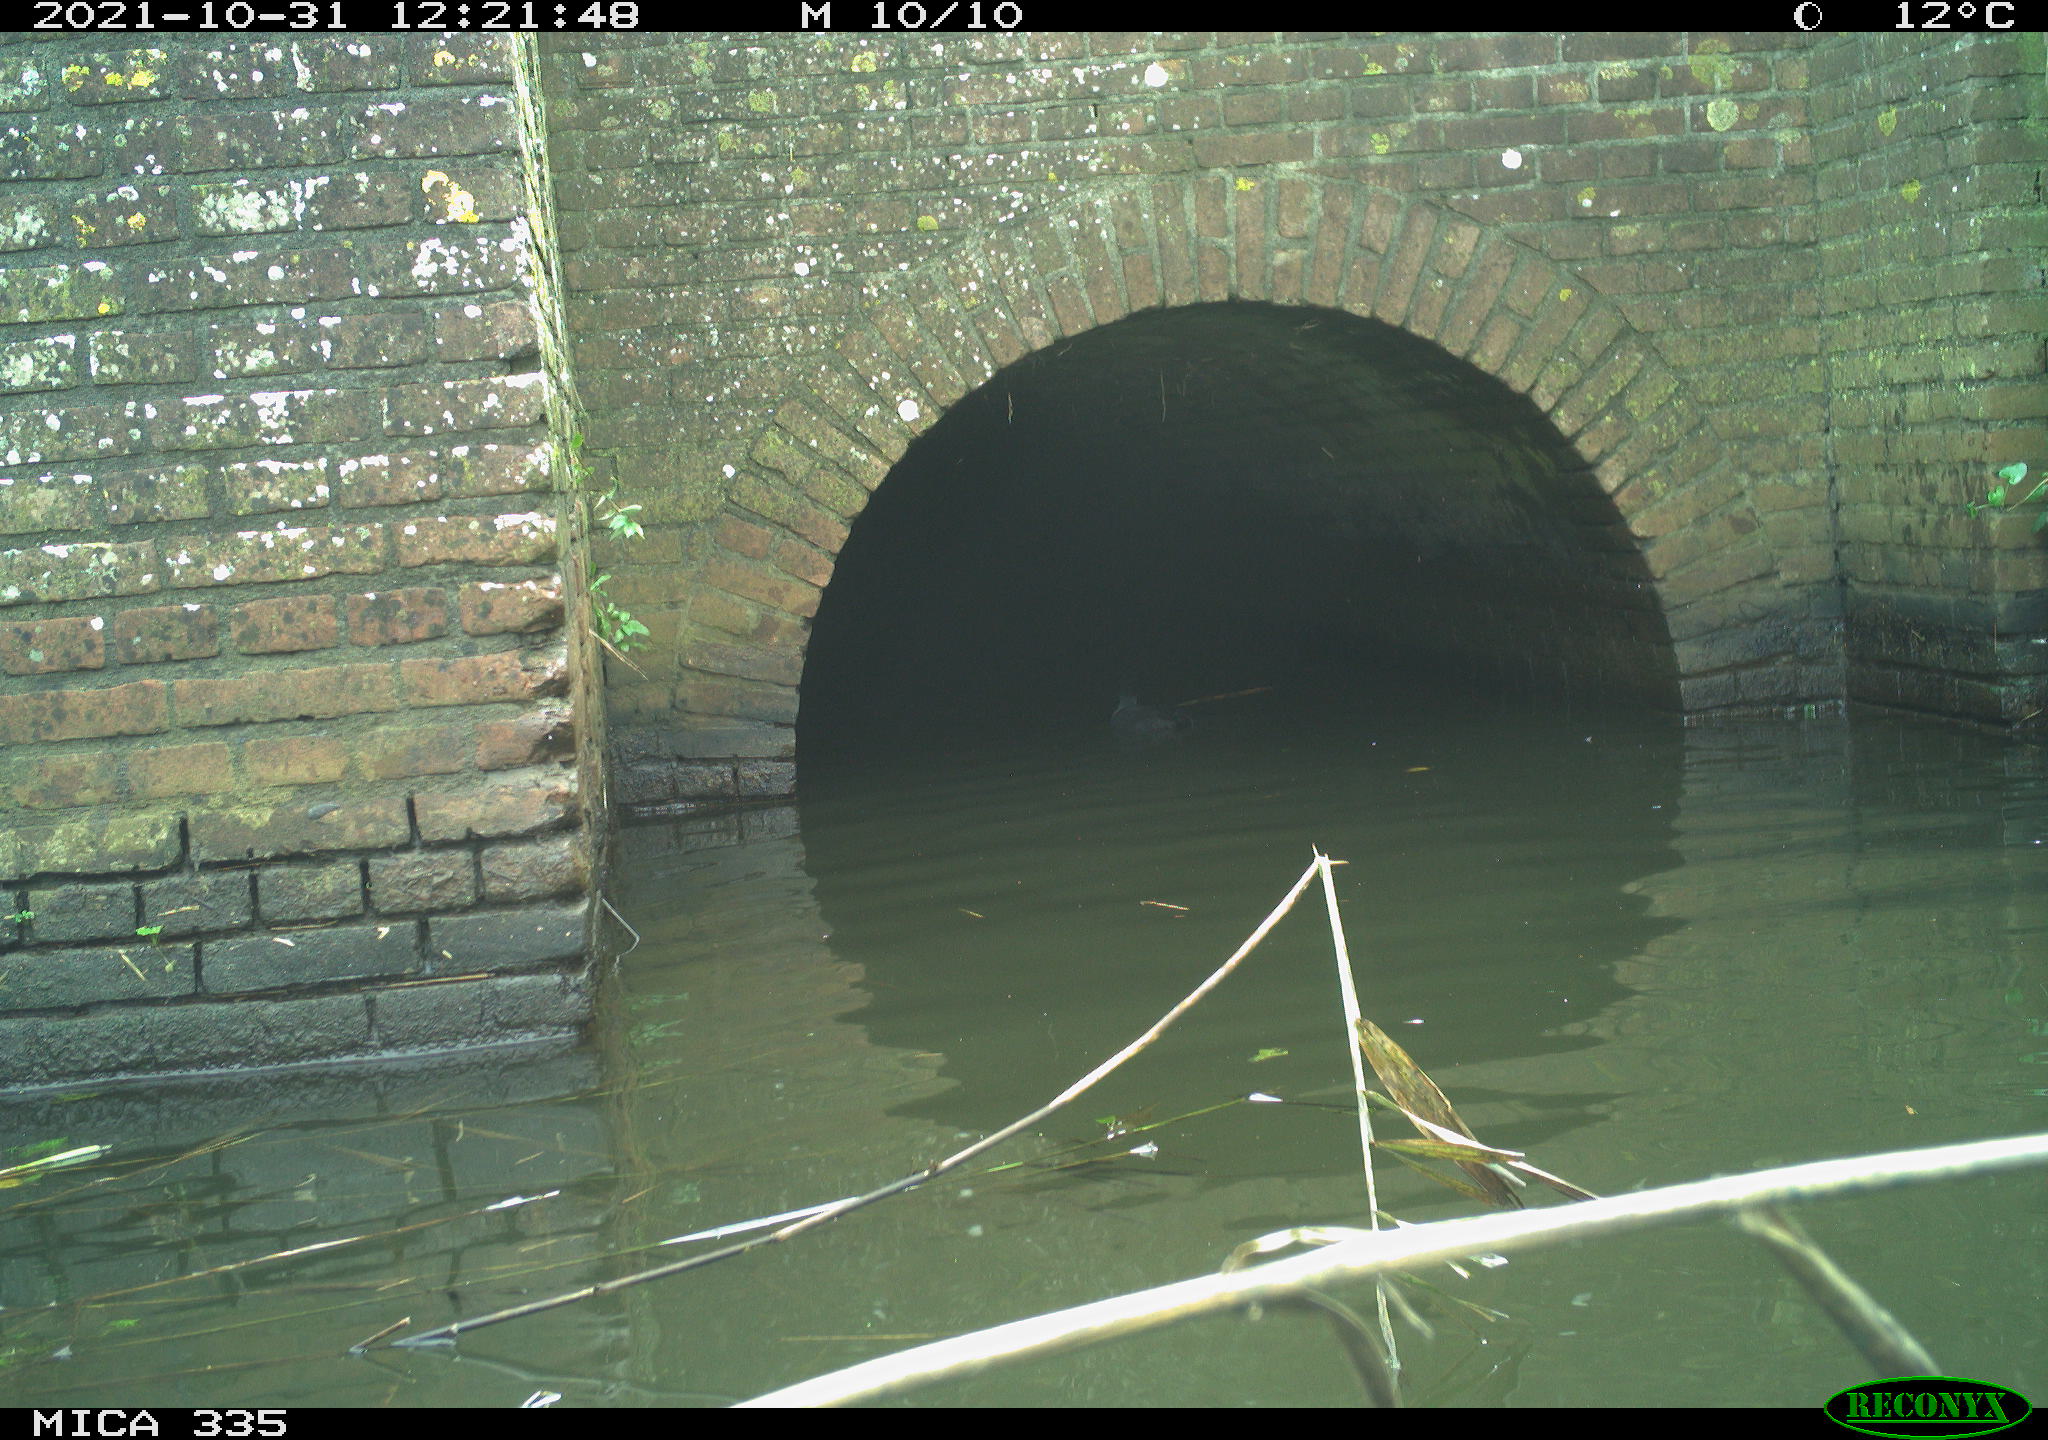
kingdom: Animalia
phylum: Chordata
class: Aves
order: Gruiformes
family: Rallidae
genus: Fulica
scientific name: Fulica atra
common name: Eurasian coot
